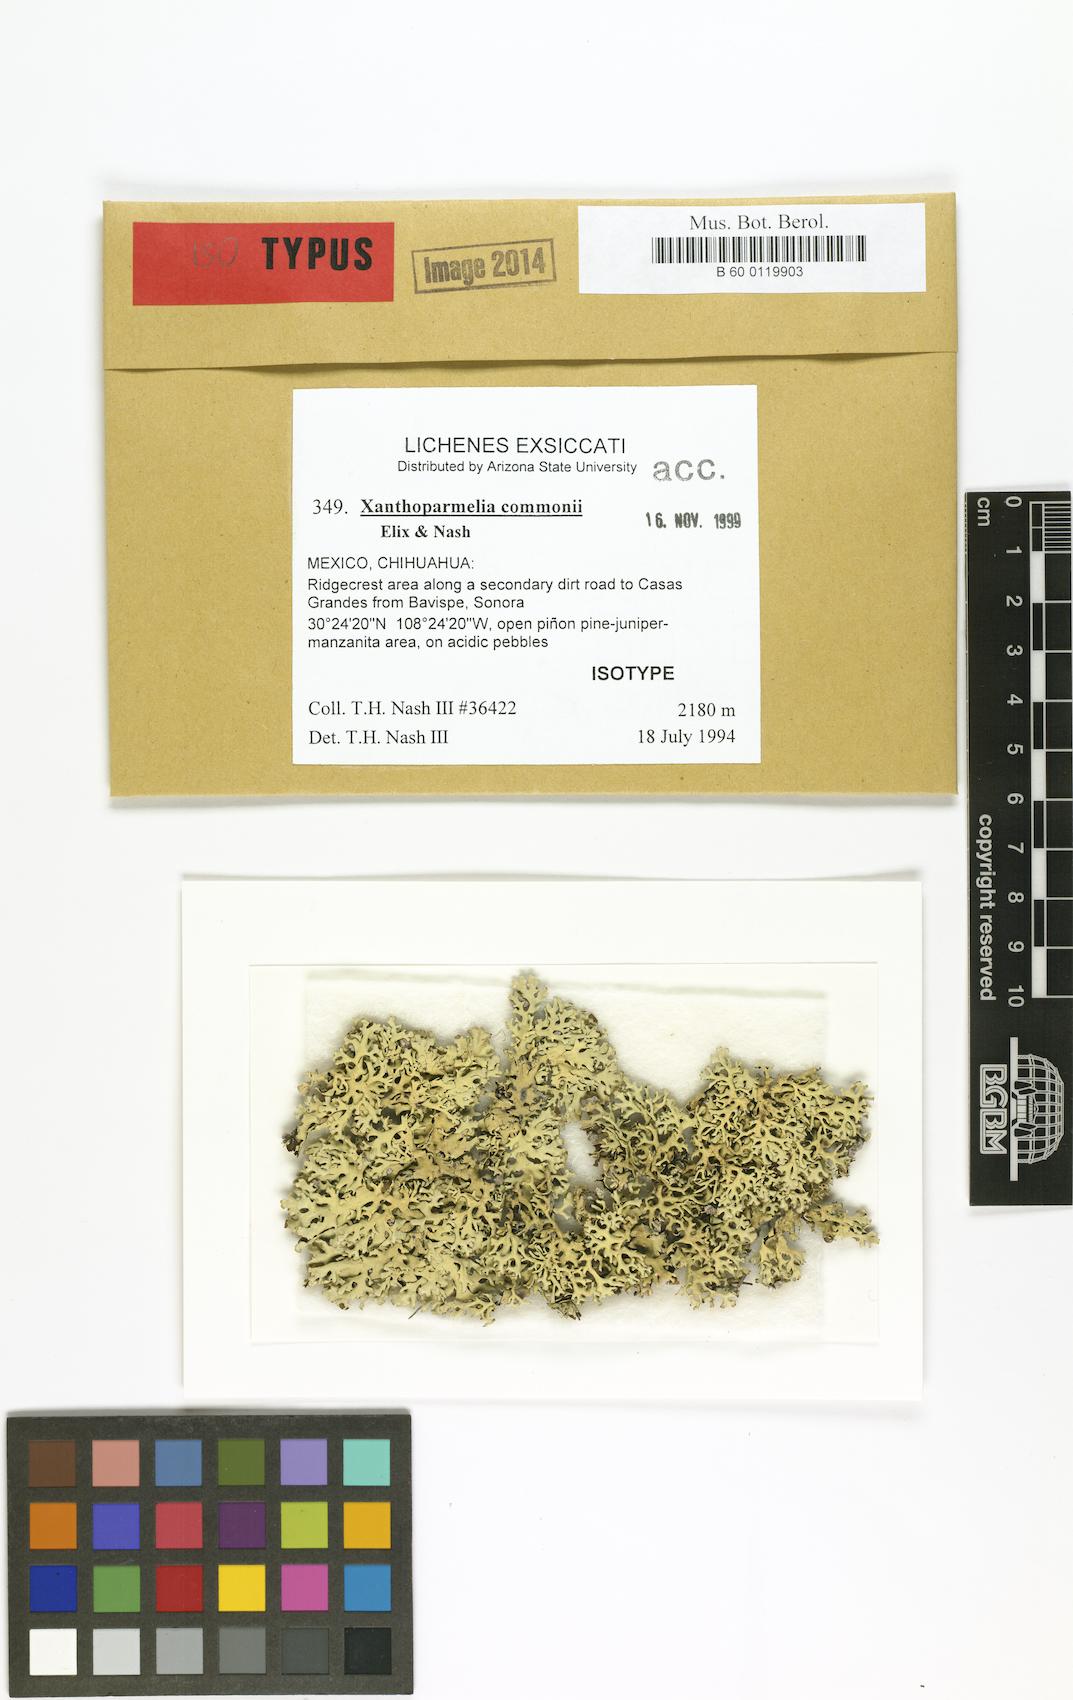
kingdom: Fungi
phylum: Ascomycota
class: Lecanoromycetes
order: Lecanorales
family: Parmeliaceae
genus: Xanthoparmelia
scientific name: Xanthoparmelia commonii
